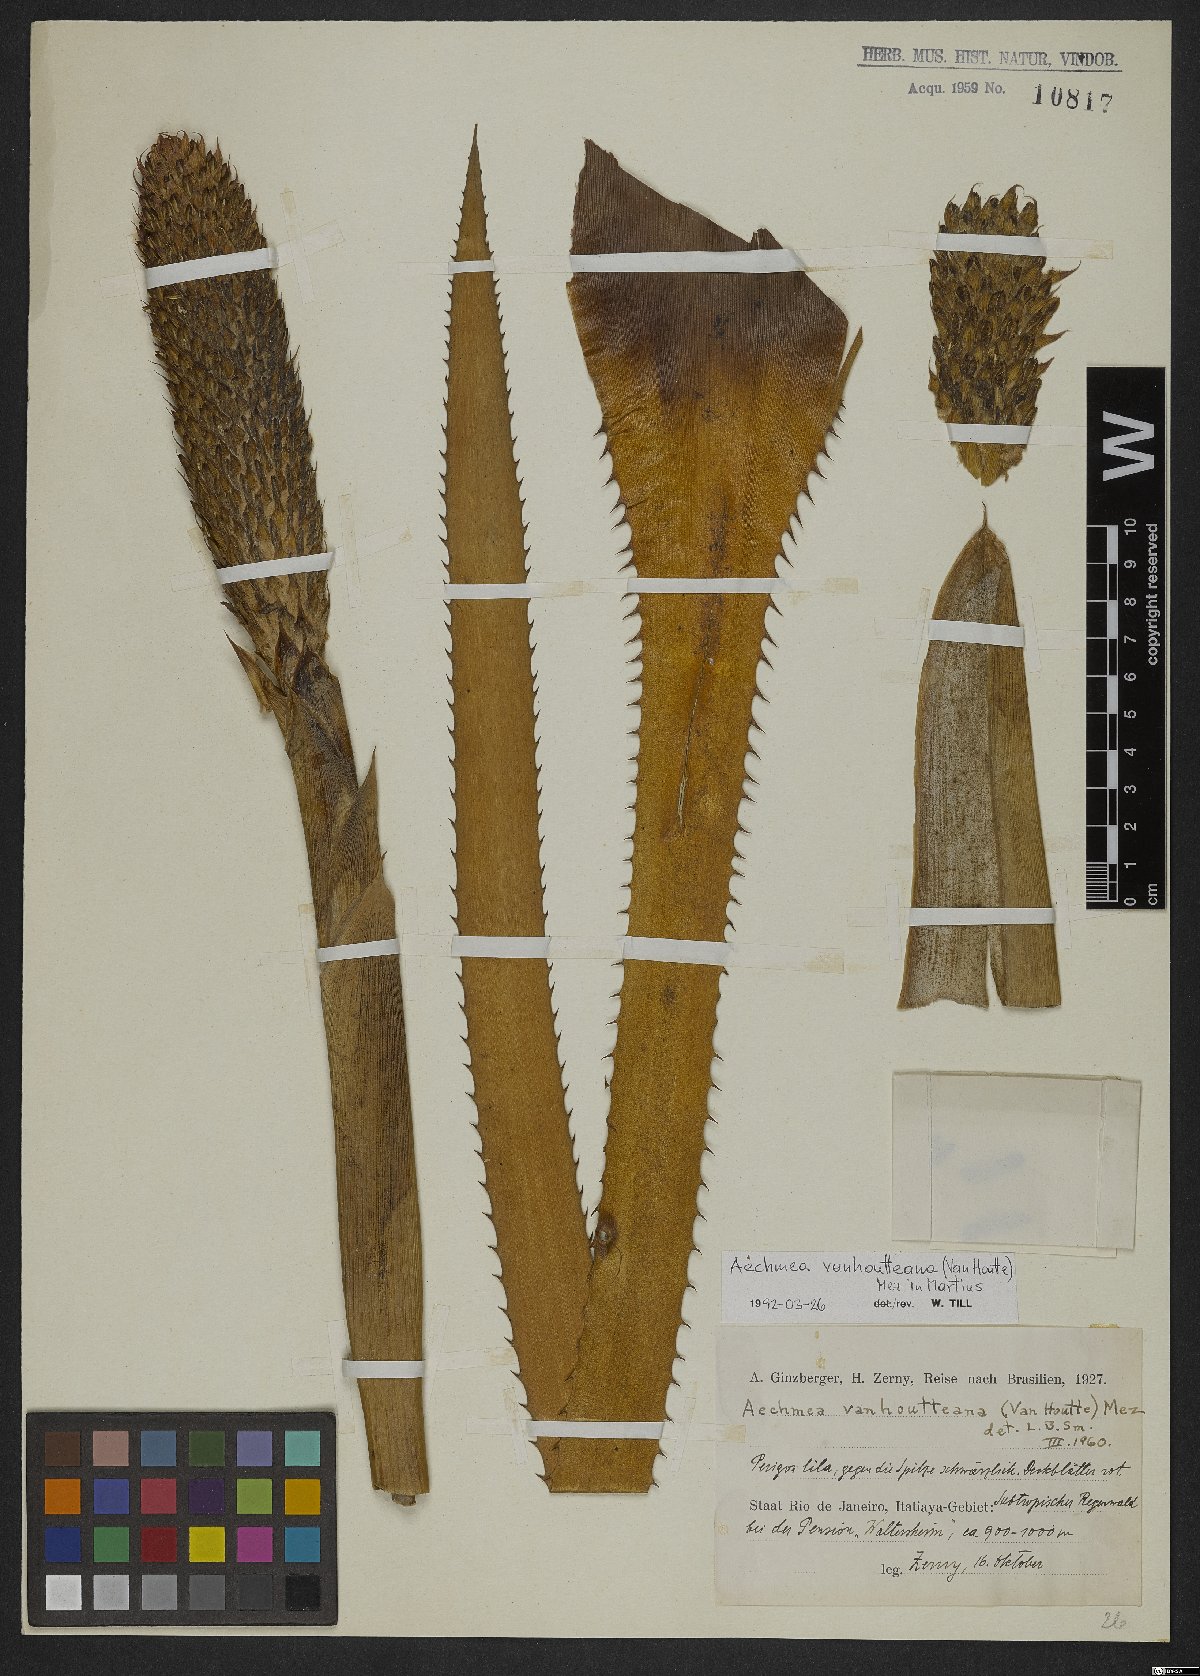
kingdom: Plantae
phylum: Tracheophyta
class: Liliopsida
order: Poales
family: Bromeliaceae
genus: Aechmea
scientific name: Aechmea vanhoutteana
